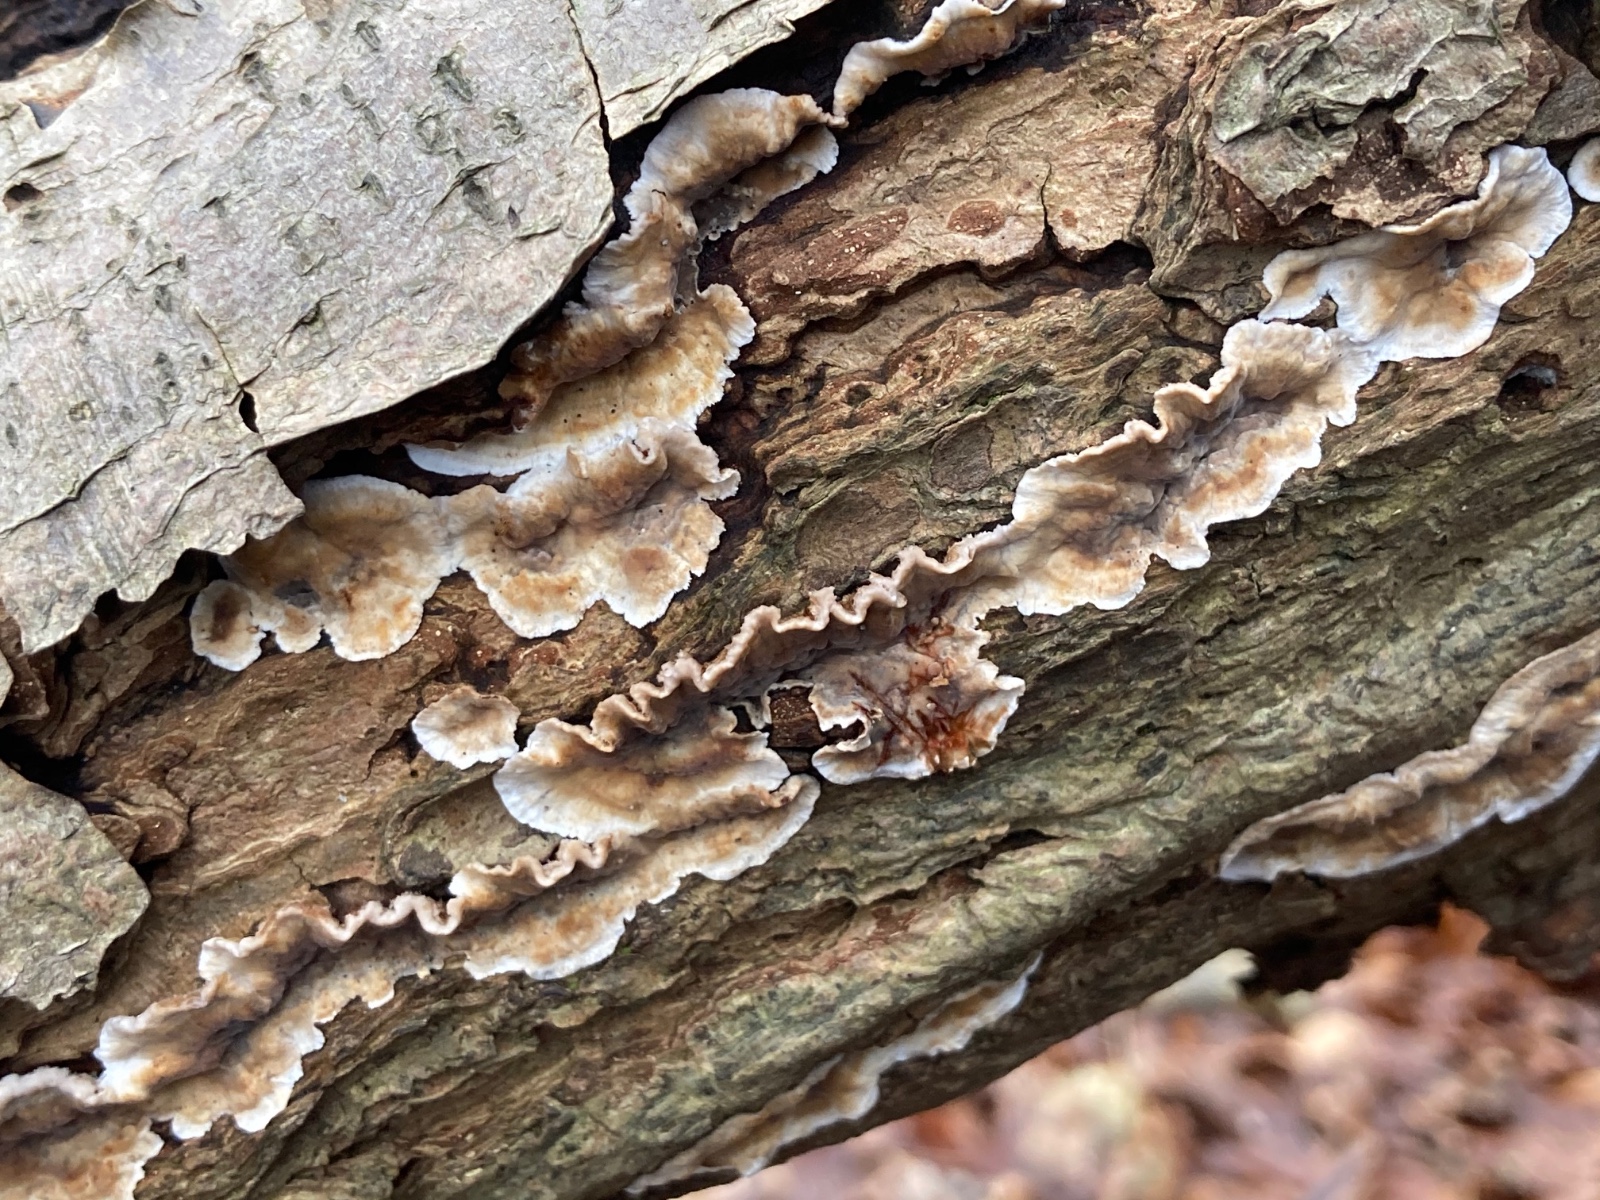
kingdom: Fungi
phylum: Basidiomycota
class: Agaricomycetes
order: Russulales
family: Stereaceae
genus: Stereum
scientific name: Stereum gausapatum
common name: tynd lædersvamp
